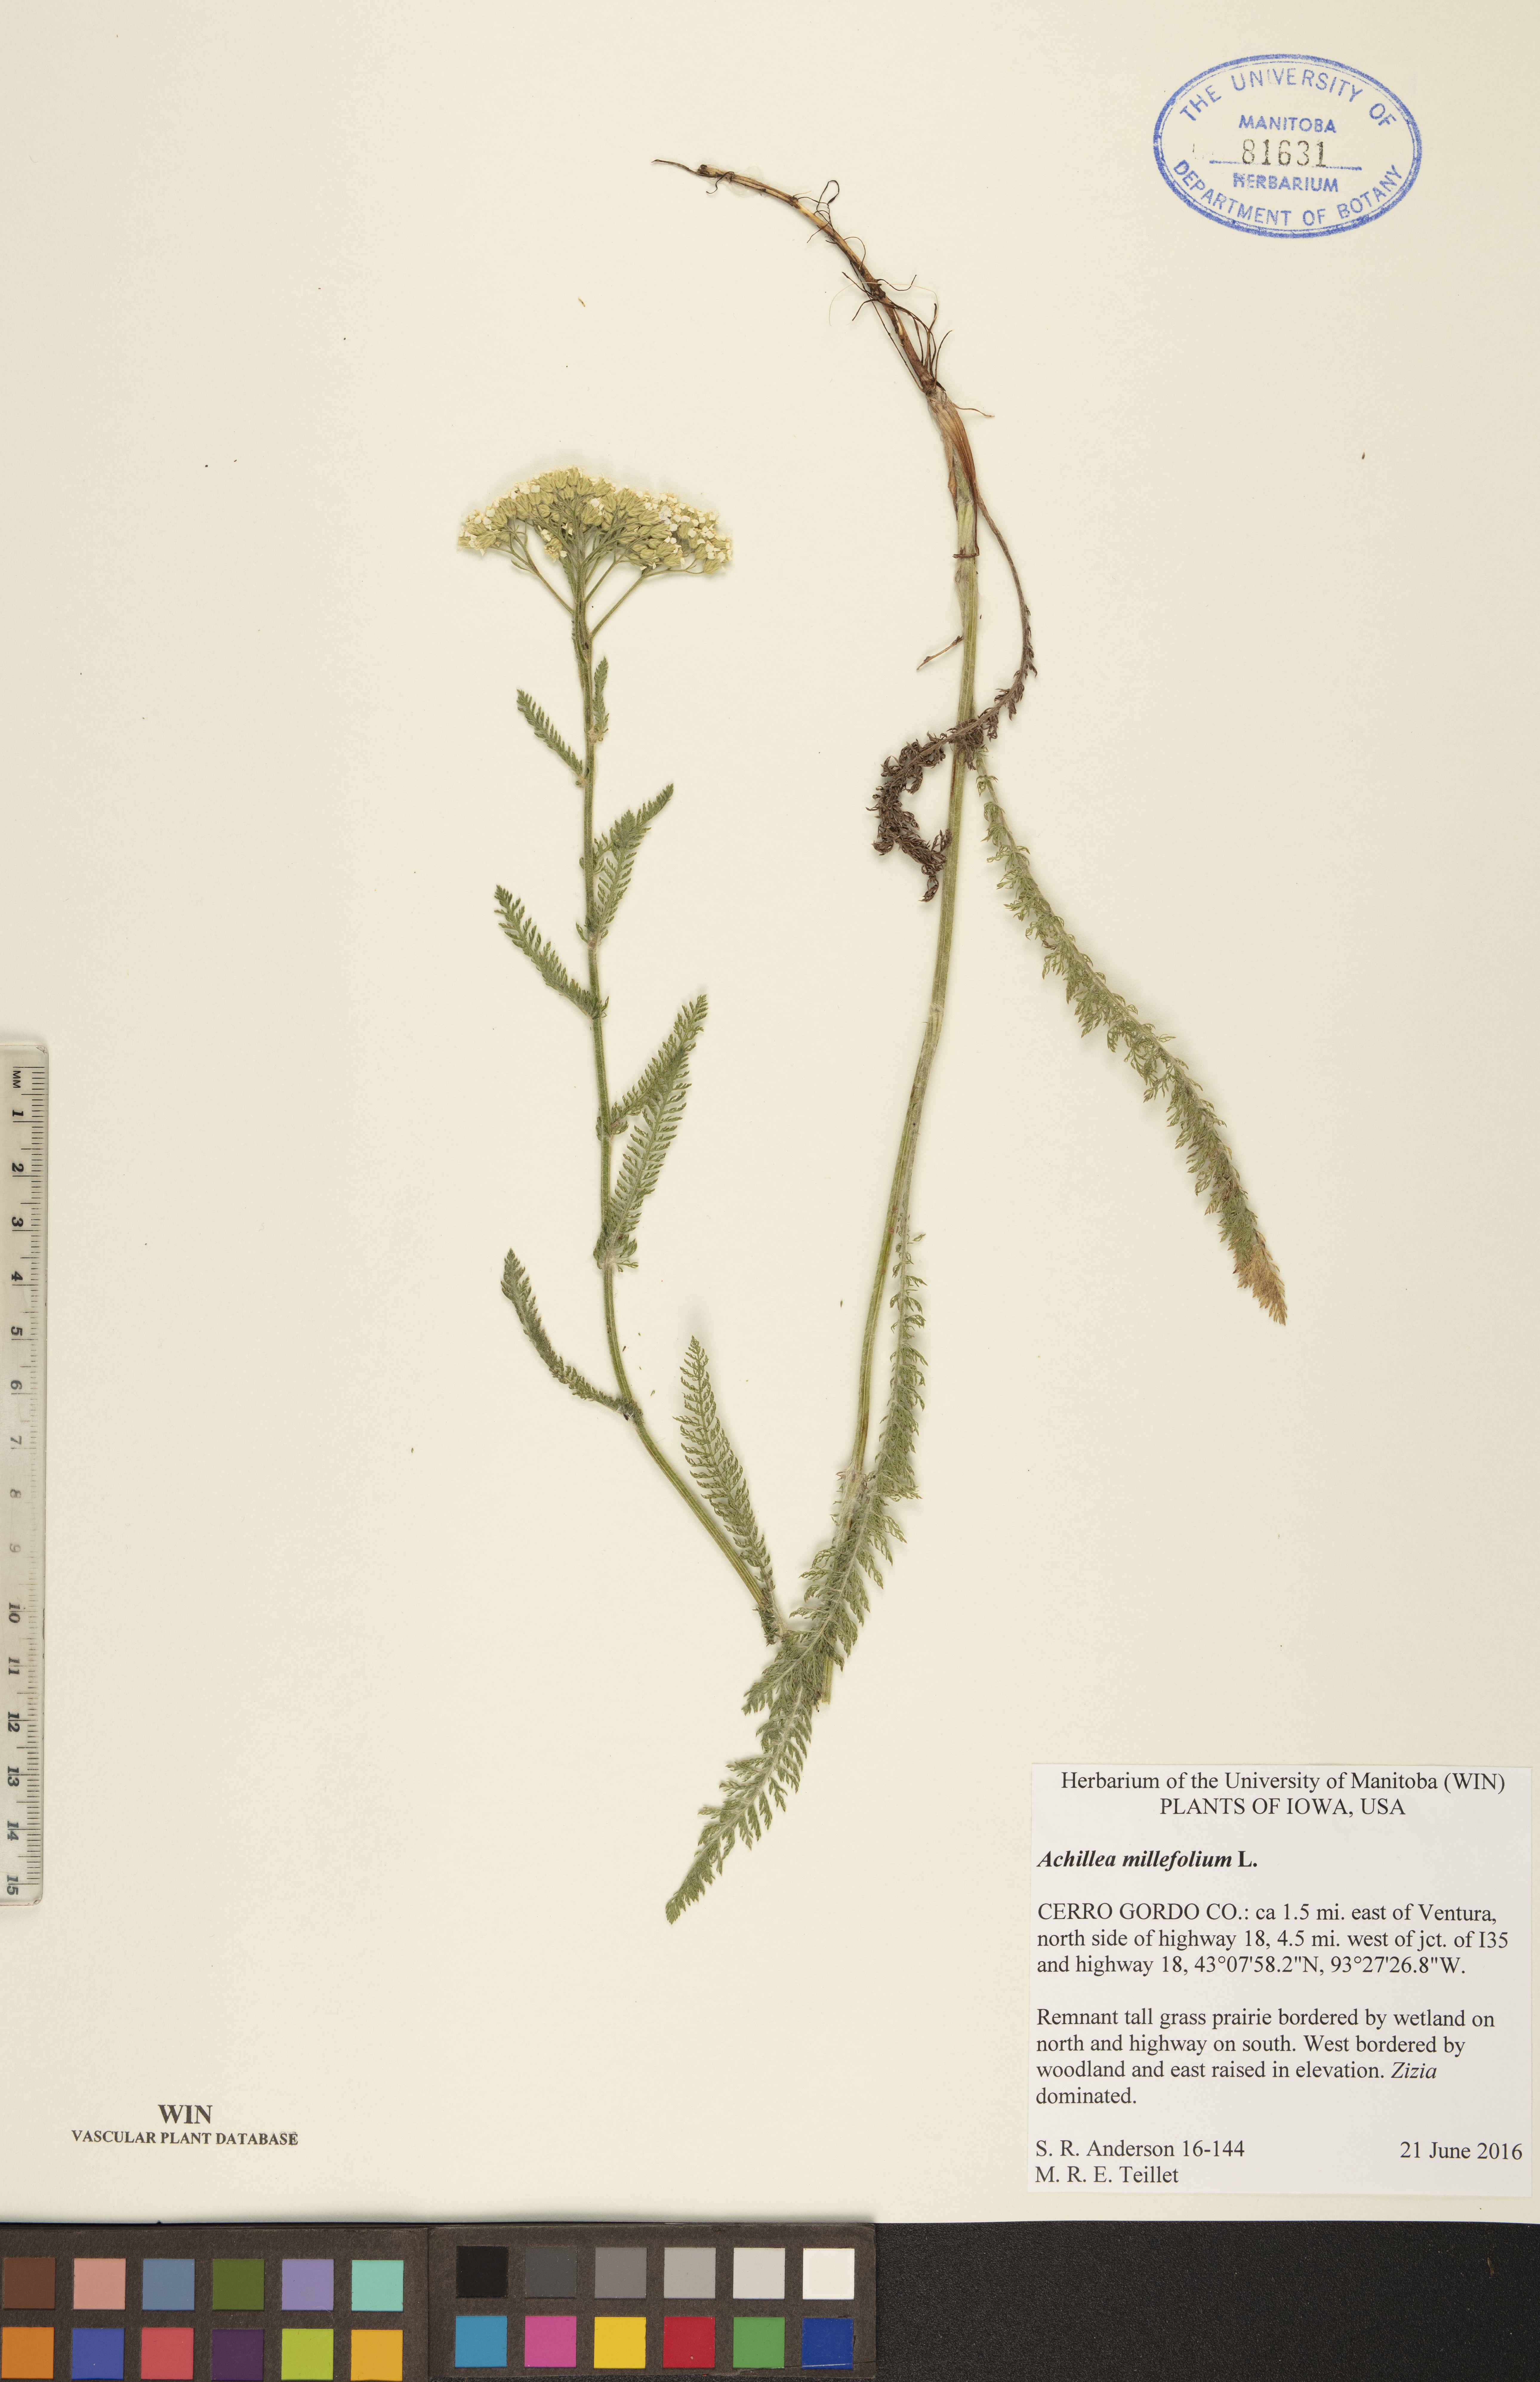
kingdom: Plantae
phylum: Tracheophyta
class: Magnoliopsida
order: Asterales
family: Asteraceae
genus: Achillea
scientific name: Achillea millefolium
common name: Yarrow
